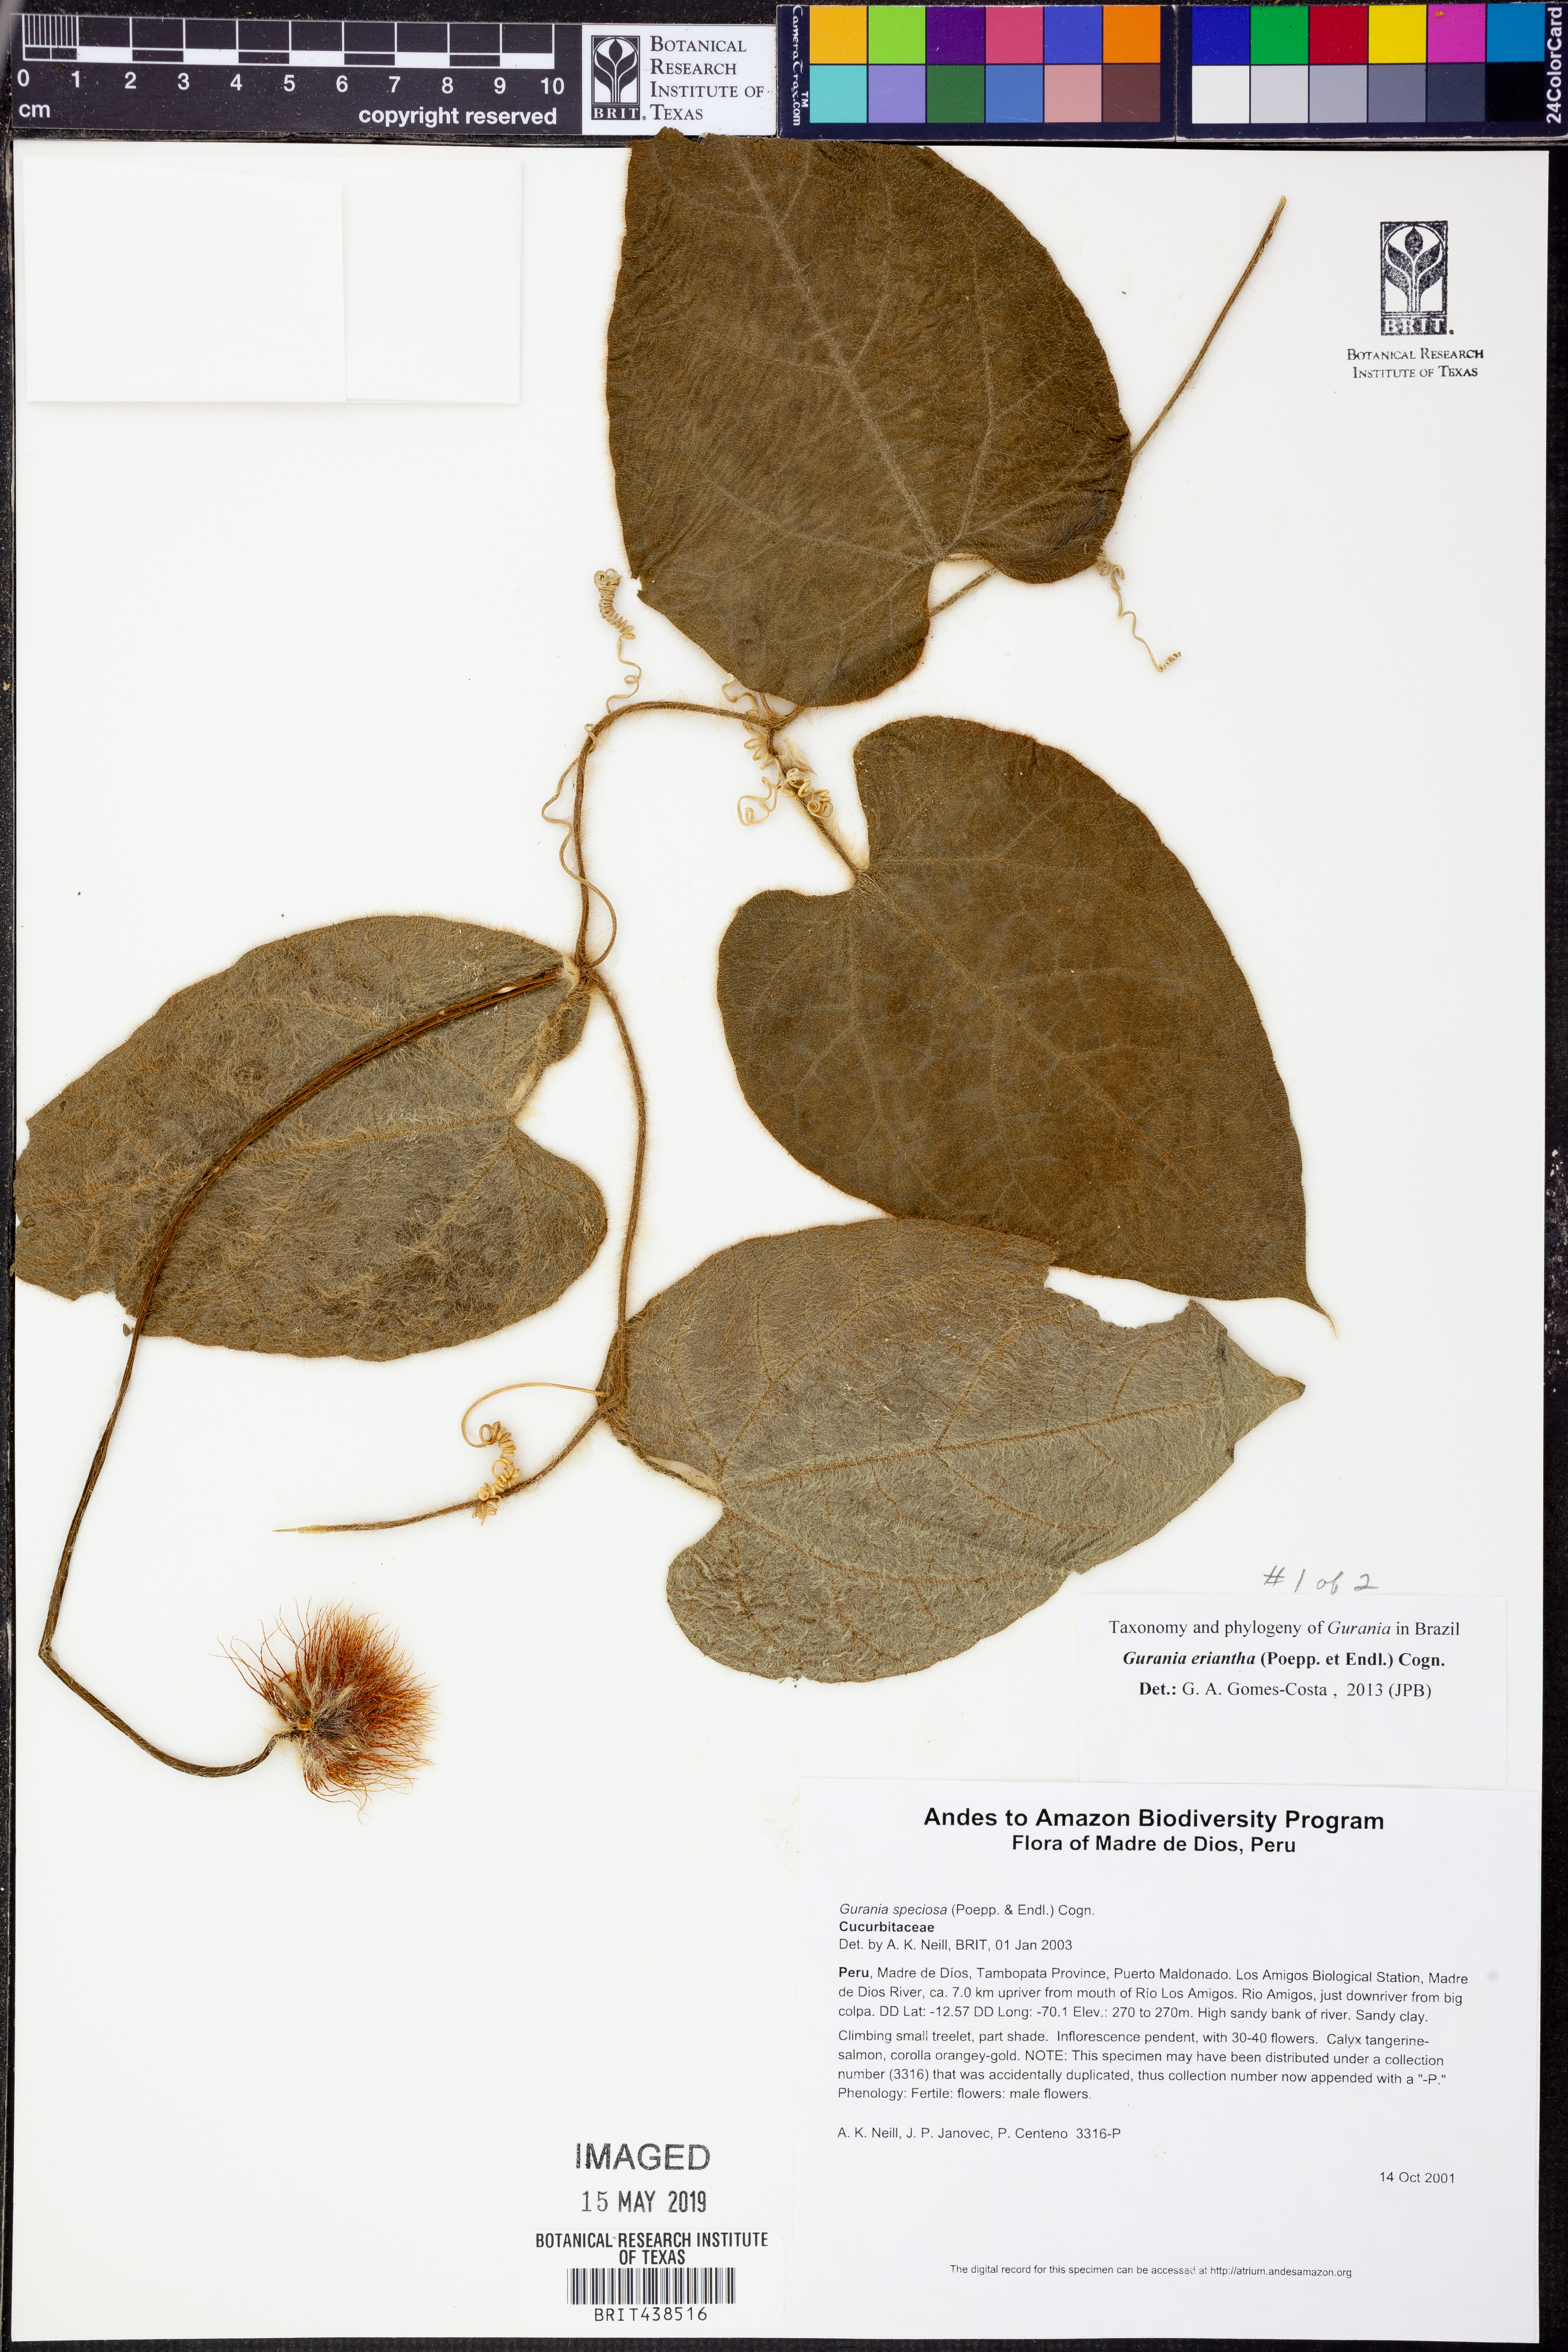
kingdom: Plantae
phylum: Tracheophyta
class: Magnoliopsida
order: Cucurbitales
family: Cucurbitaceae
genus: Gurania
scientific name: Gurania
